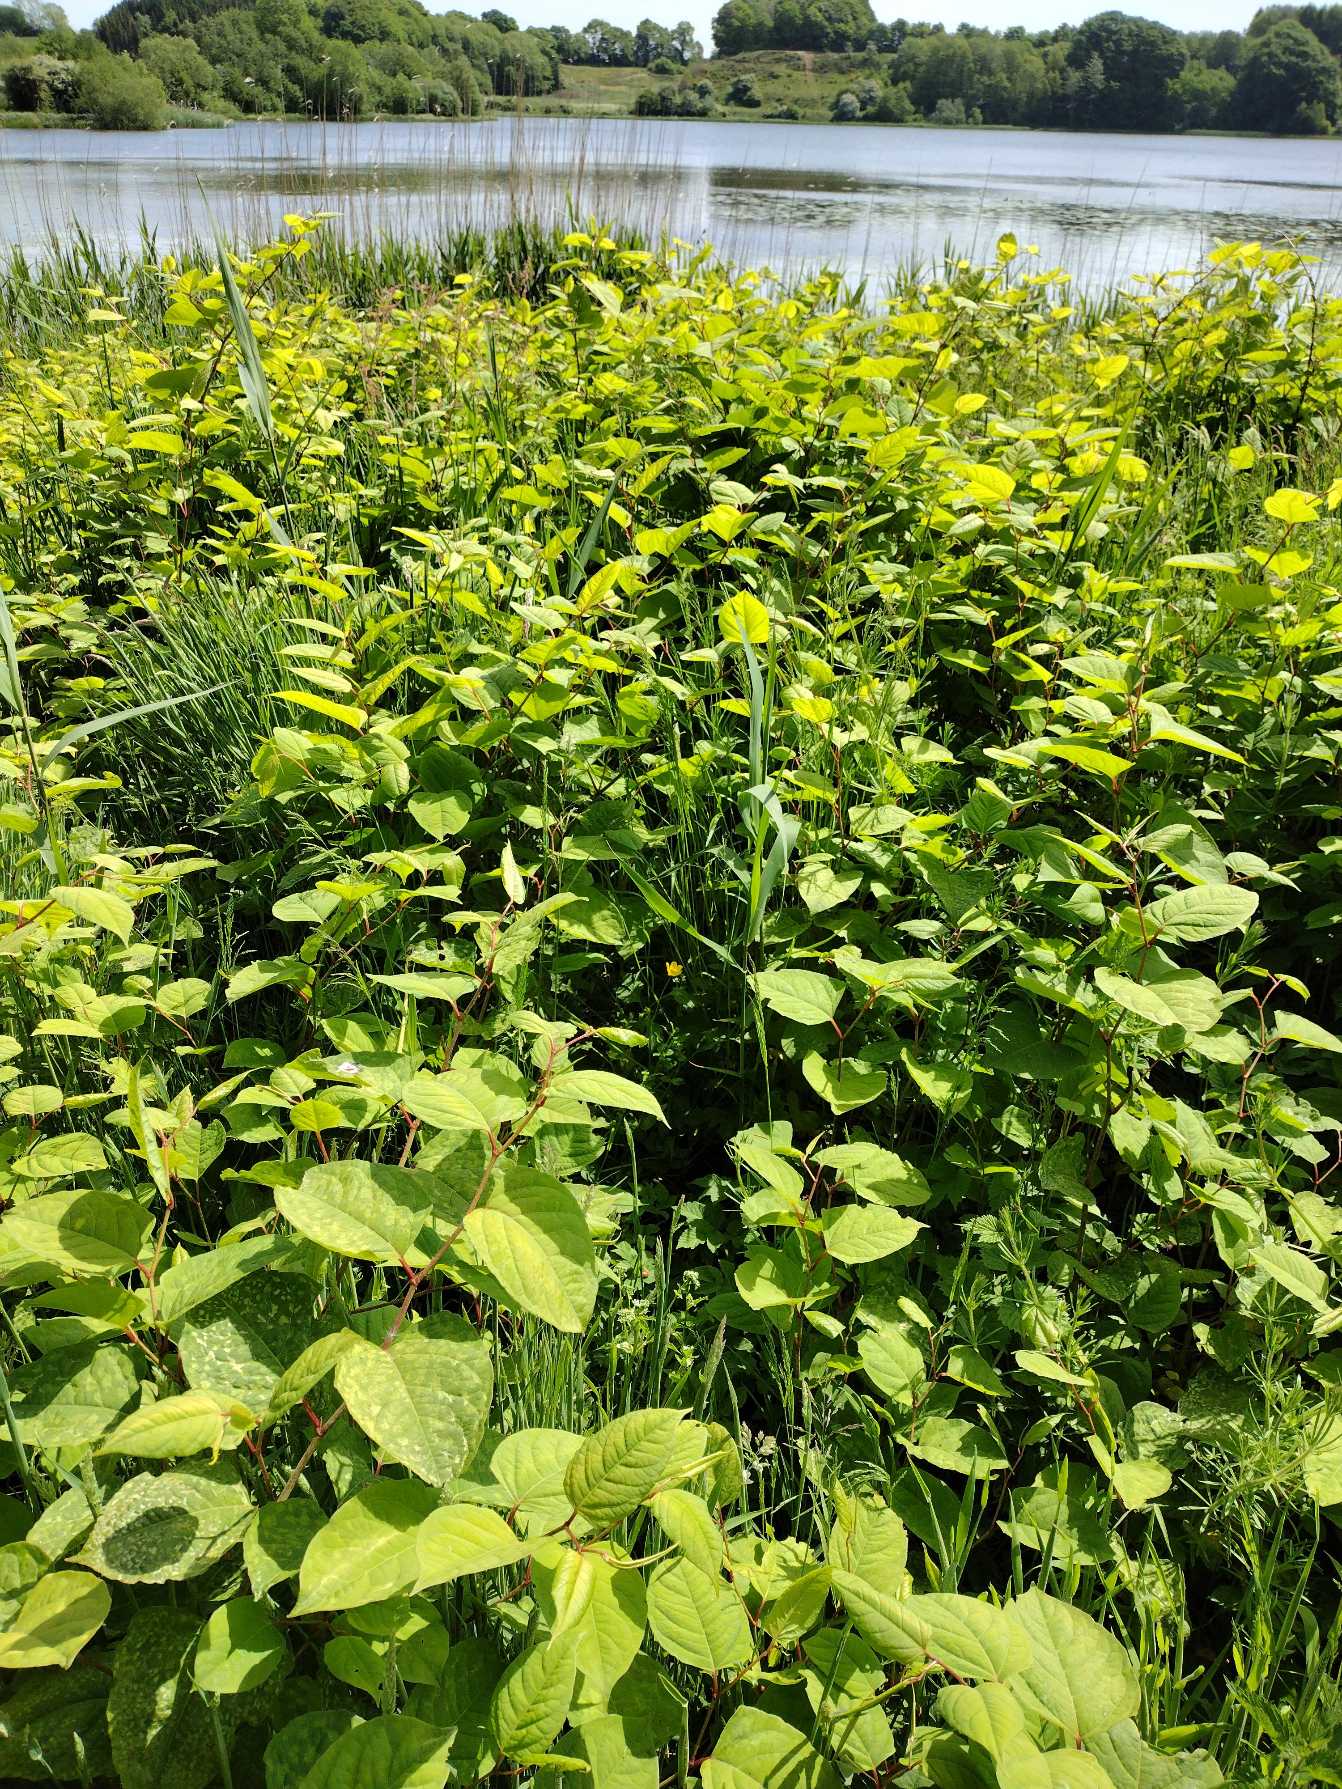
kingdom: Plantae
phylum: Tracheophyta
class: Magnoliopsida
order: Caryophyllales
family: Polygonaceae
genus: Reynoutria
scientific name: Reynoutria japonica
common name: Japan-pileurt
